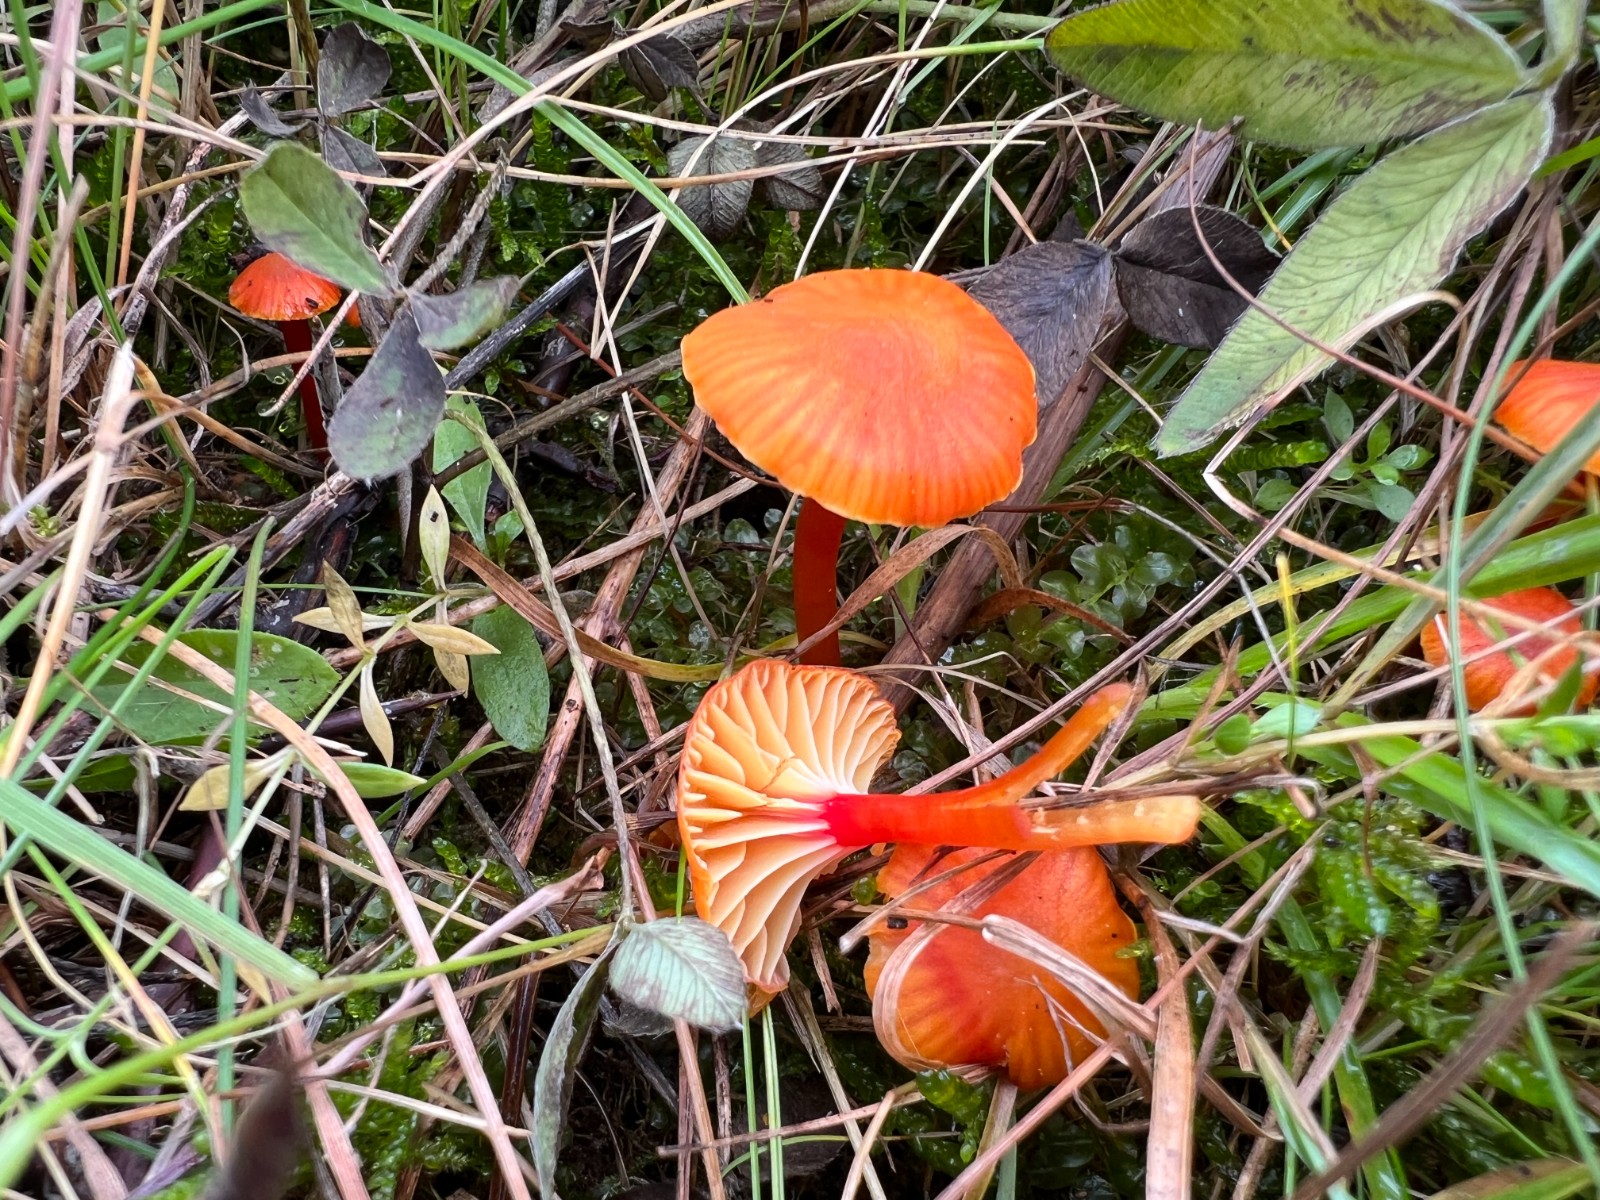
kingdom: Fungi
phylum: Basidiomycota
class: Agaricomycetes
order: Agaricales
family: Hygrophoraceae
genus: Hygrocybe
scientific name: Hygrocybe insipida
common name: liden vokshat
